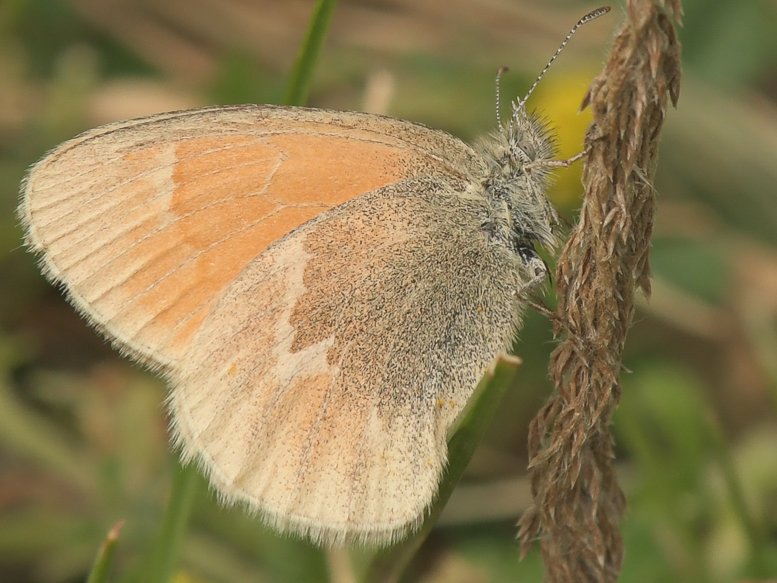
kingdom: Animalia
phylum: Arthropoda
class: Insecta
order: Lepidoptera
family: Nymphalidae
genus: Coenonympha
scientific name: Coenonympha tullia
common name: Large Heath
